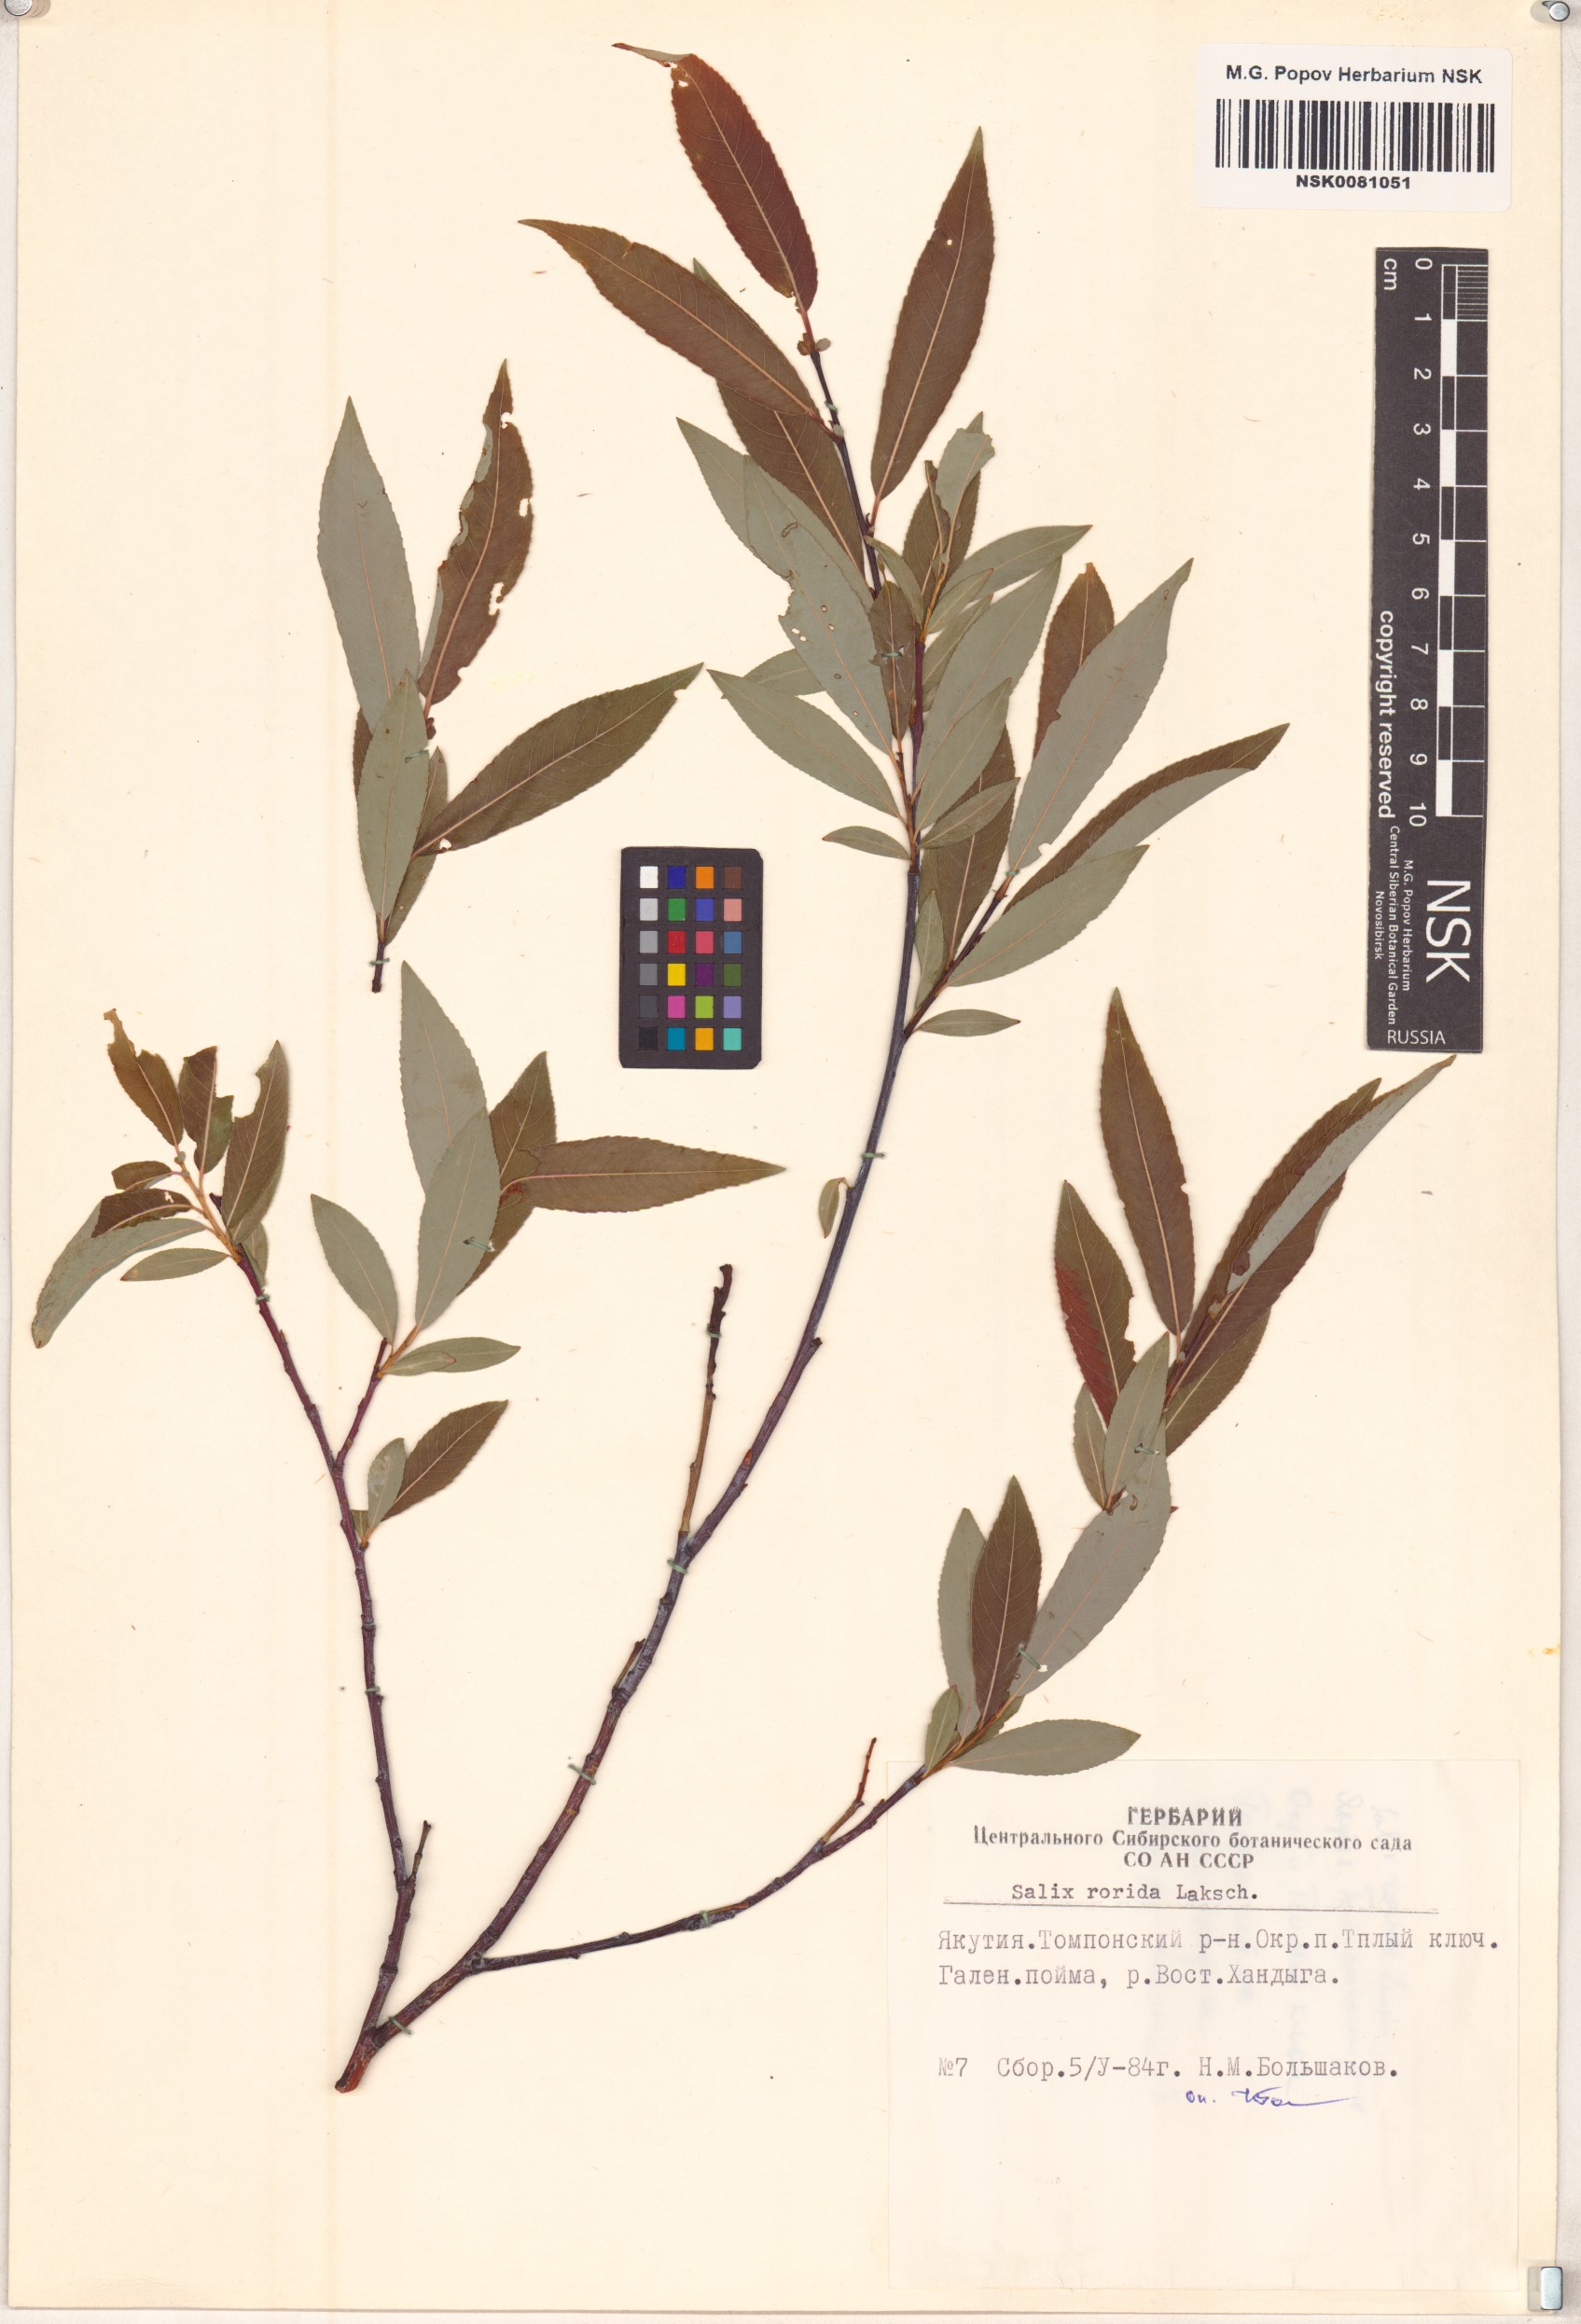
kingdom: Plantae
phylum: Tracheophyta
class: Magnoliopsida
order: Malpighiales
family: Salicaceae
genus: Salix
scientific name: Salix rorida
